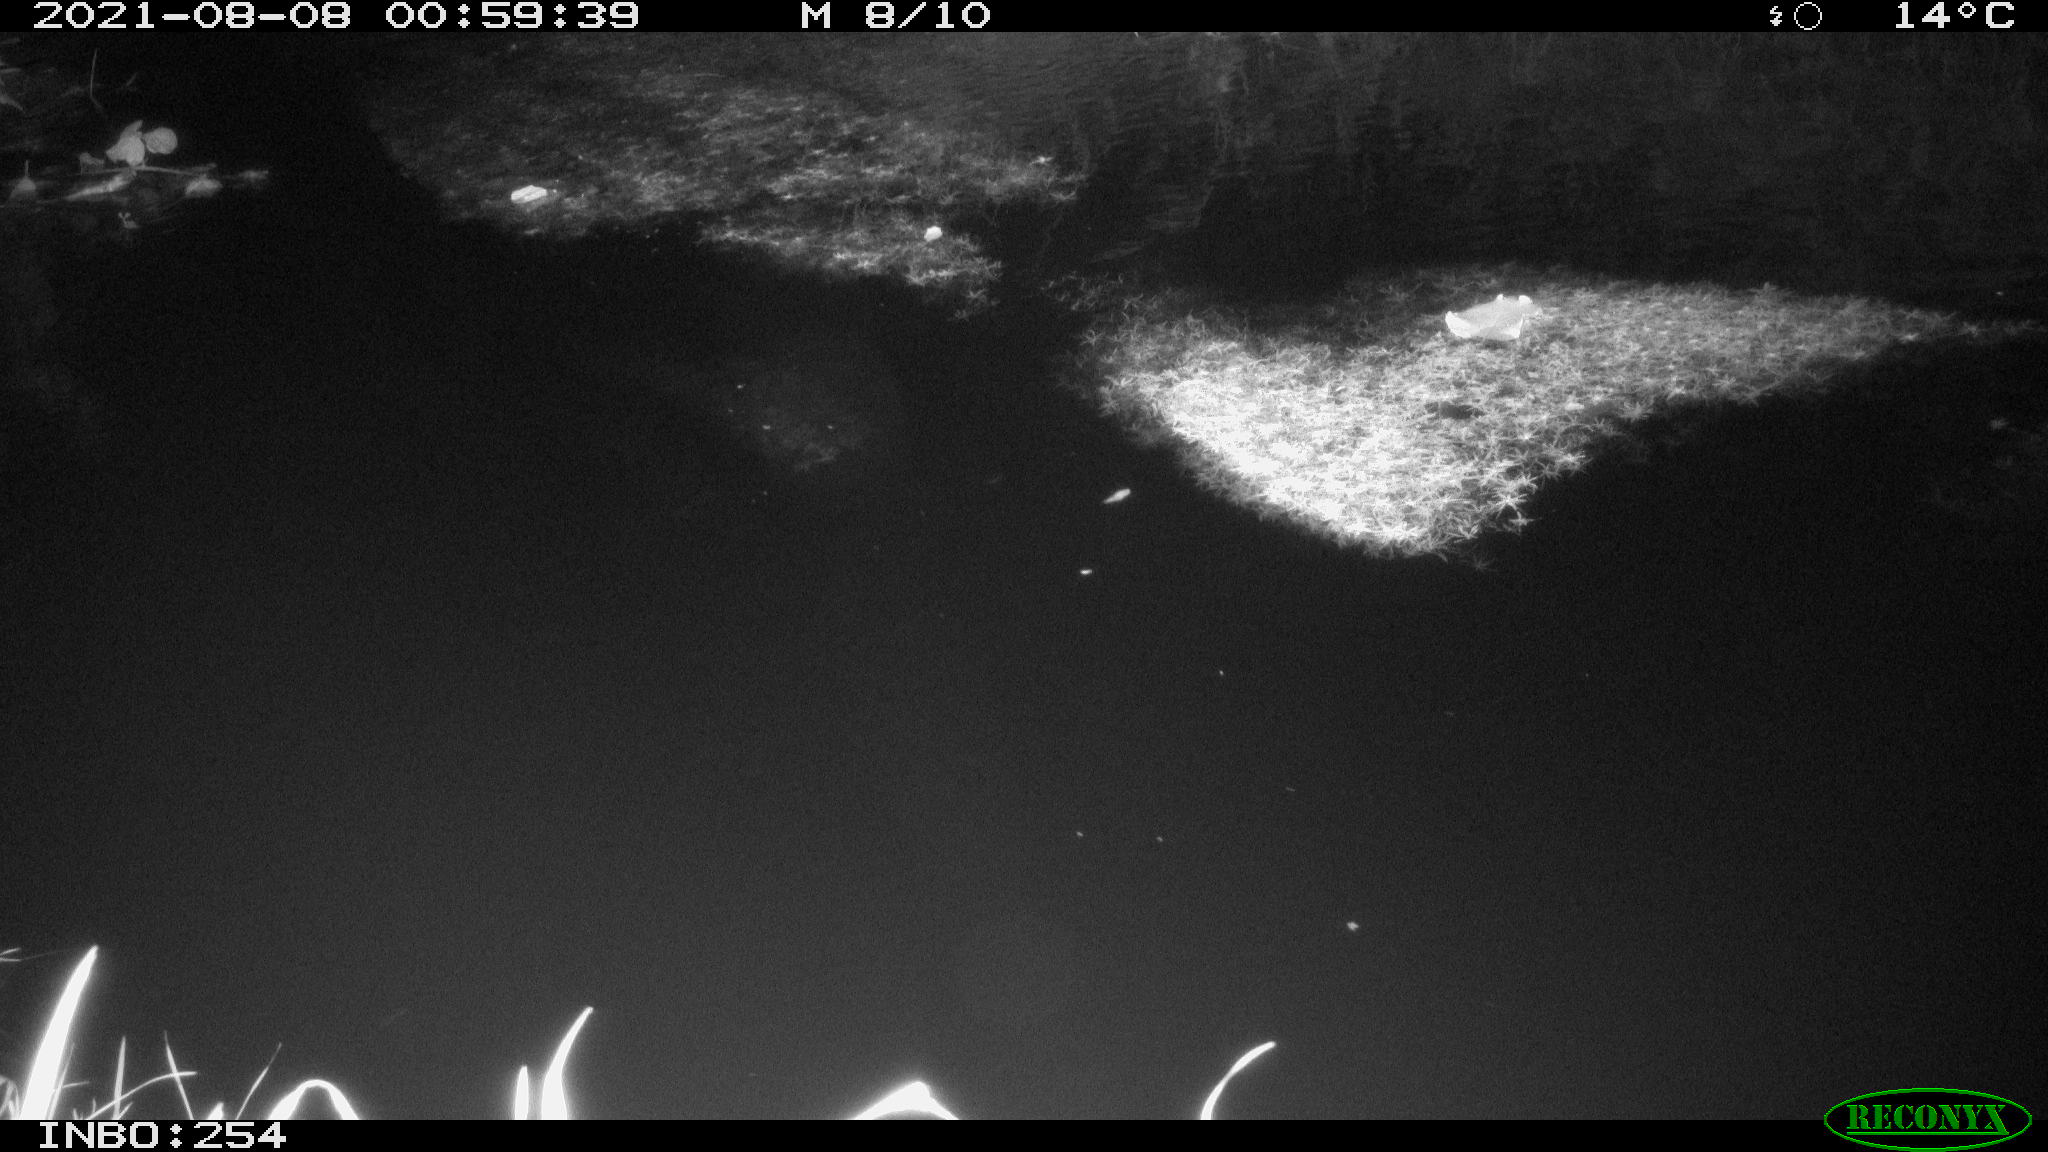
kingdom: Animalia
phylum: Chordata
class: Aves
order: Anseriformes
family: Anatidae
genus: Anas
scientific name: Anas platyrhynchos
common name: Mallard
